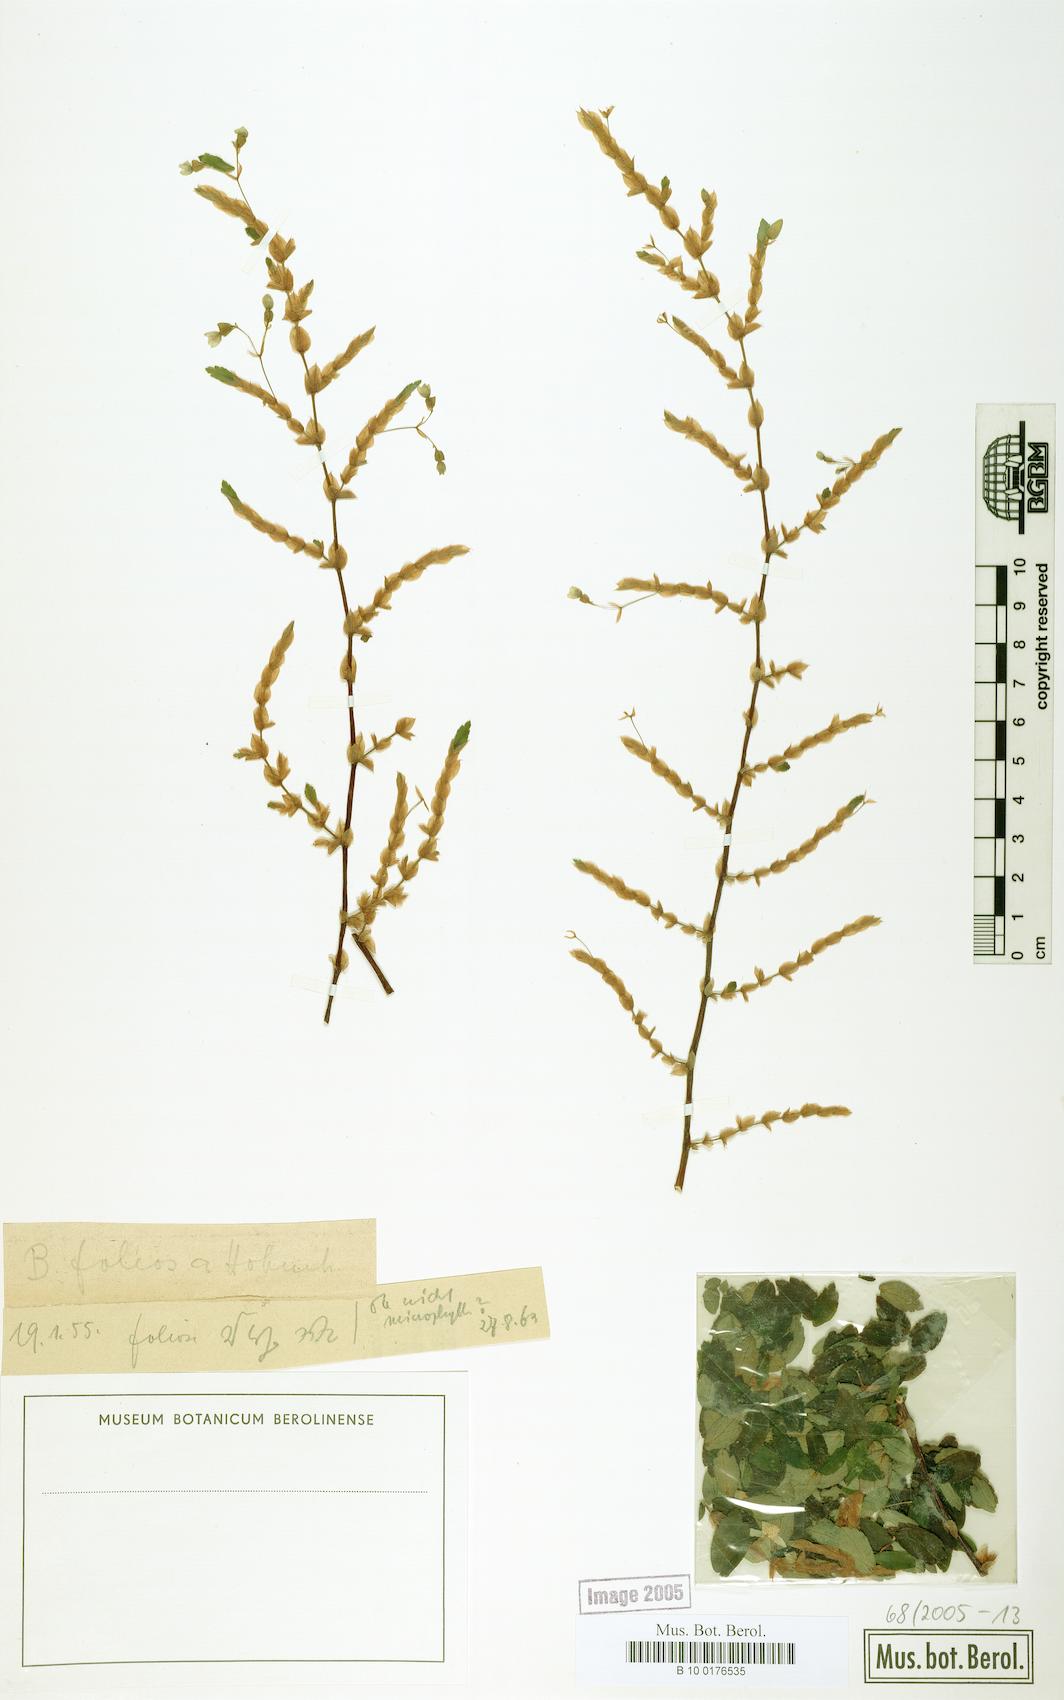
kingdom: Plantae
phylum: Tracheophyta
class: Magnoliopsida
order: Cucurbitales
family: Begoniaceae
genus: Begonia
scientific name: Begonia foliosa
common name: Fern begonia
